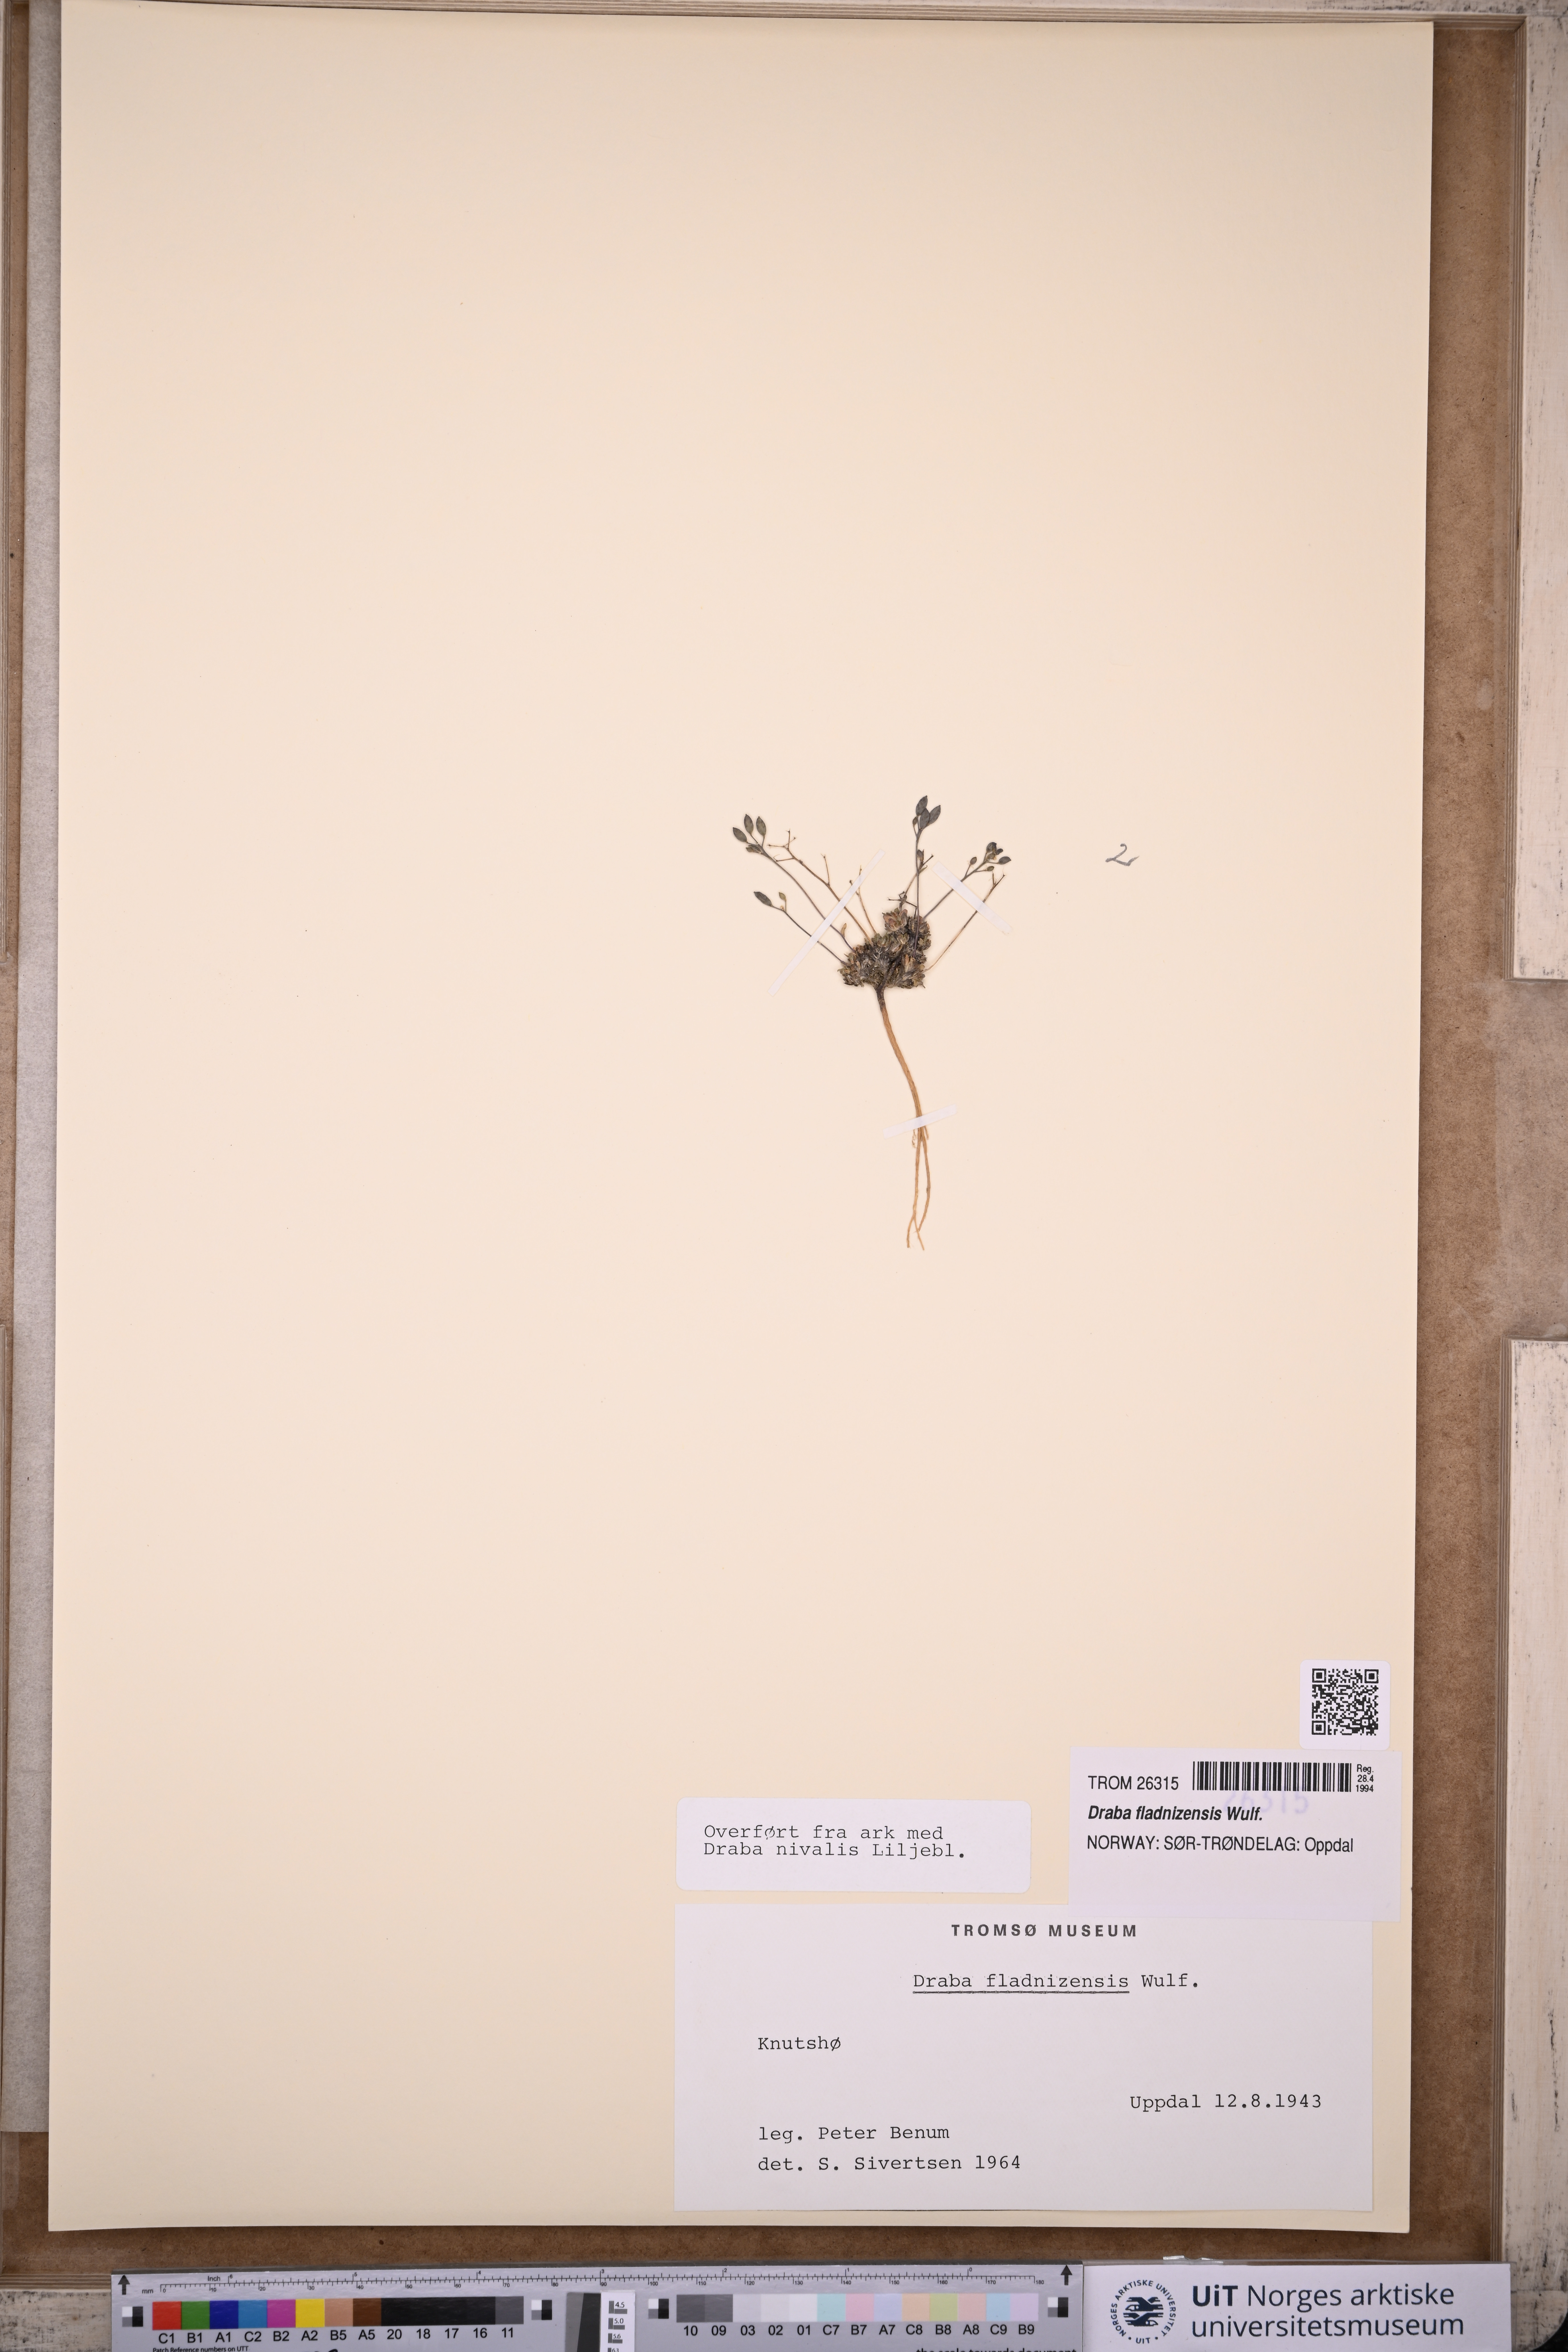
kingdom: Plantae
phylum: Tracheophyta
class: Magnoliopsida
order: Brassicales
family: Brassicaceae
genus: Draba
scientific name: Draba fladnizensis
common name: Austrian draba
